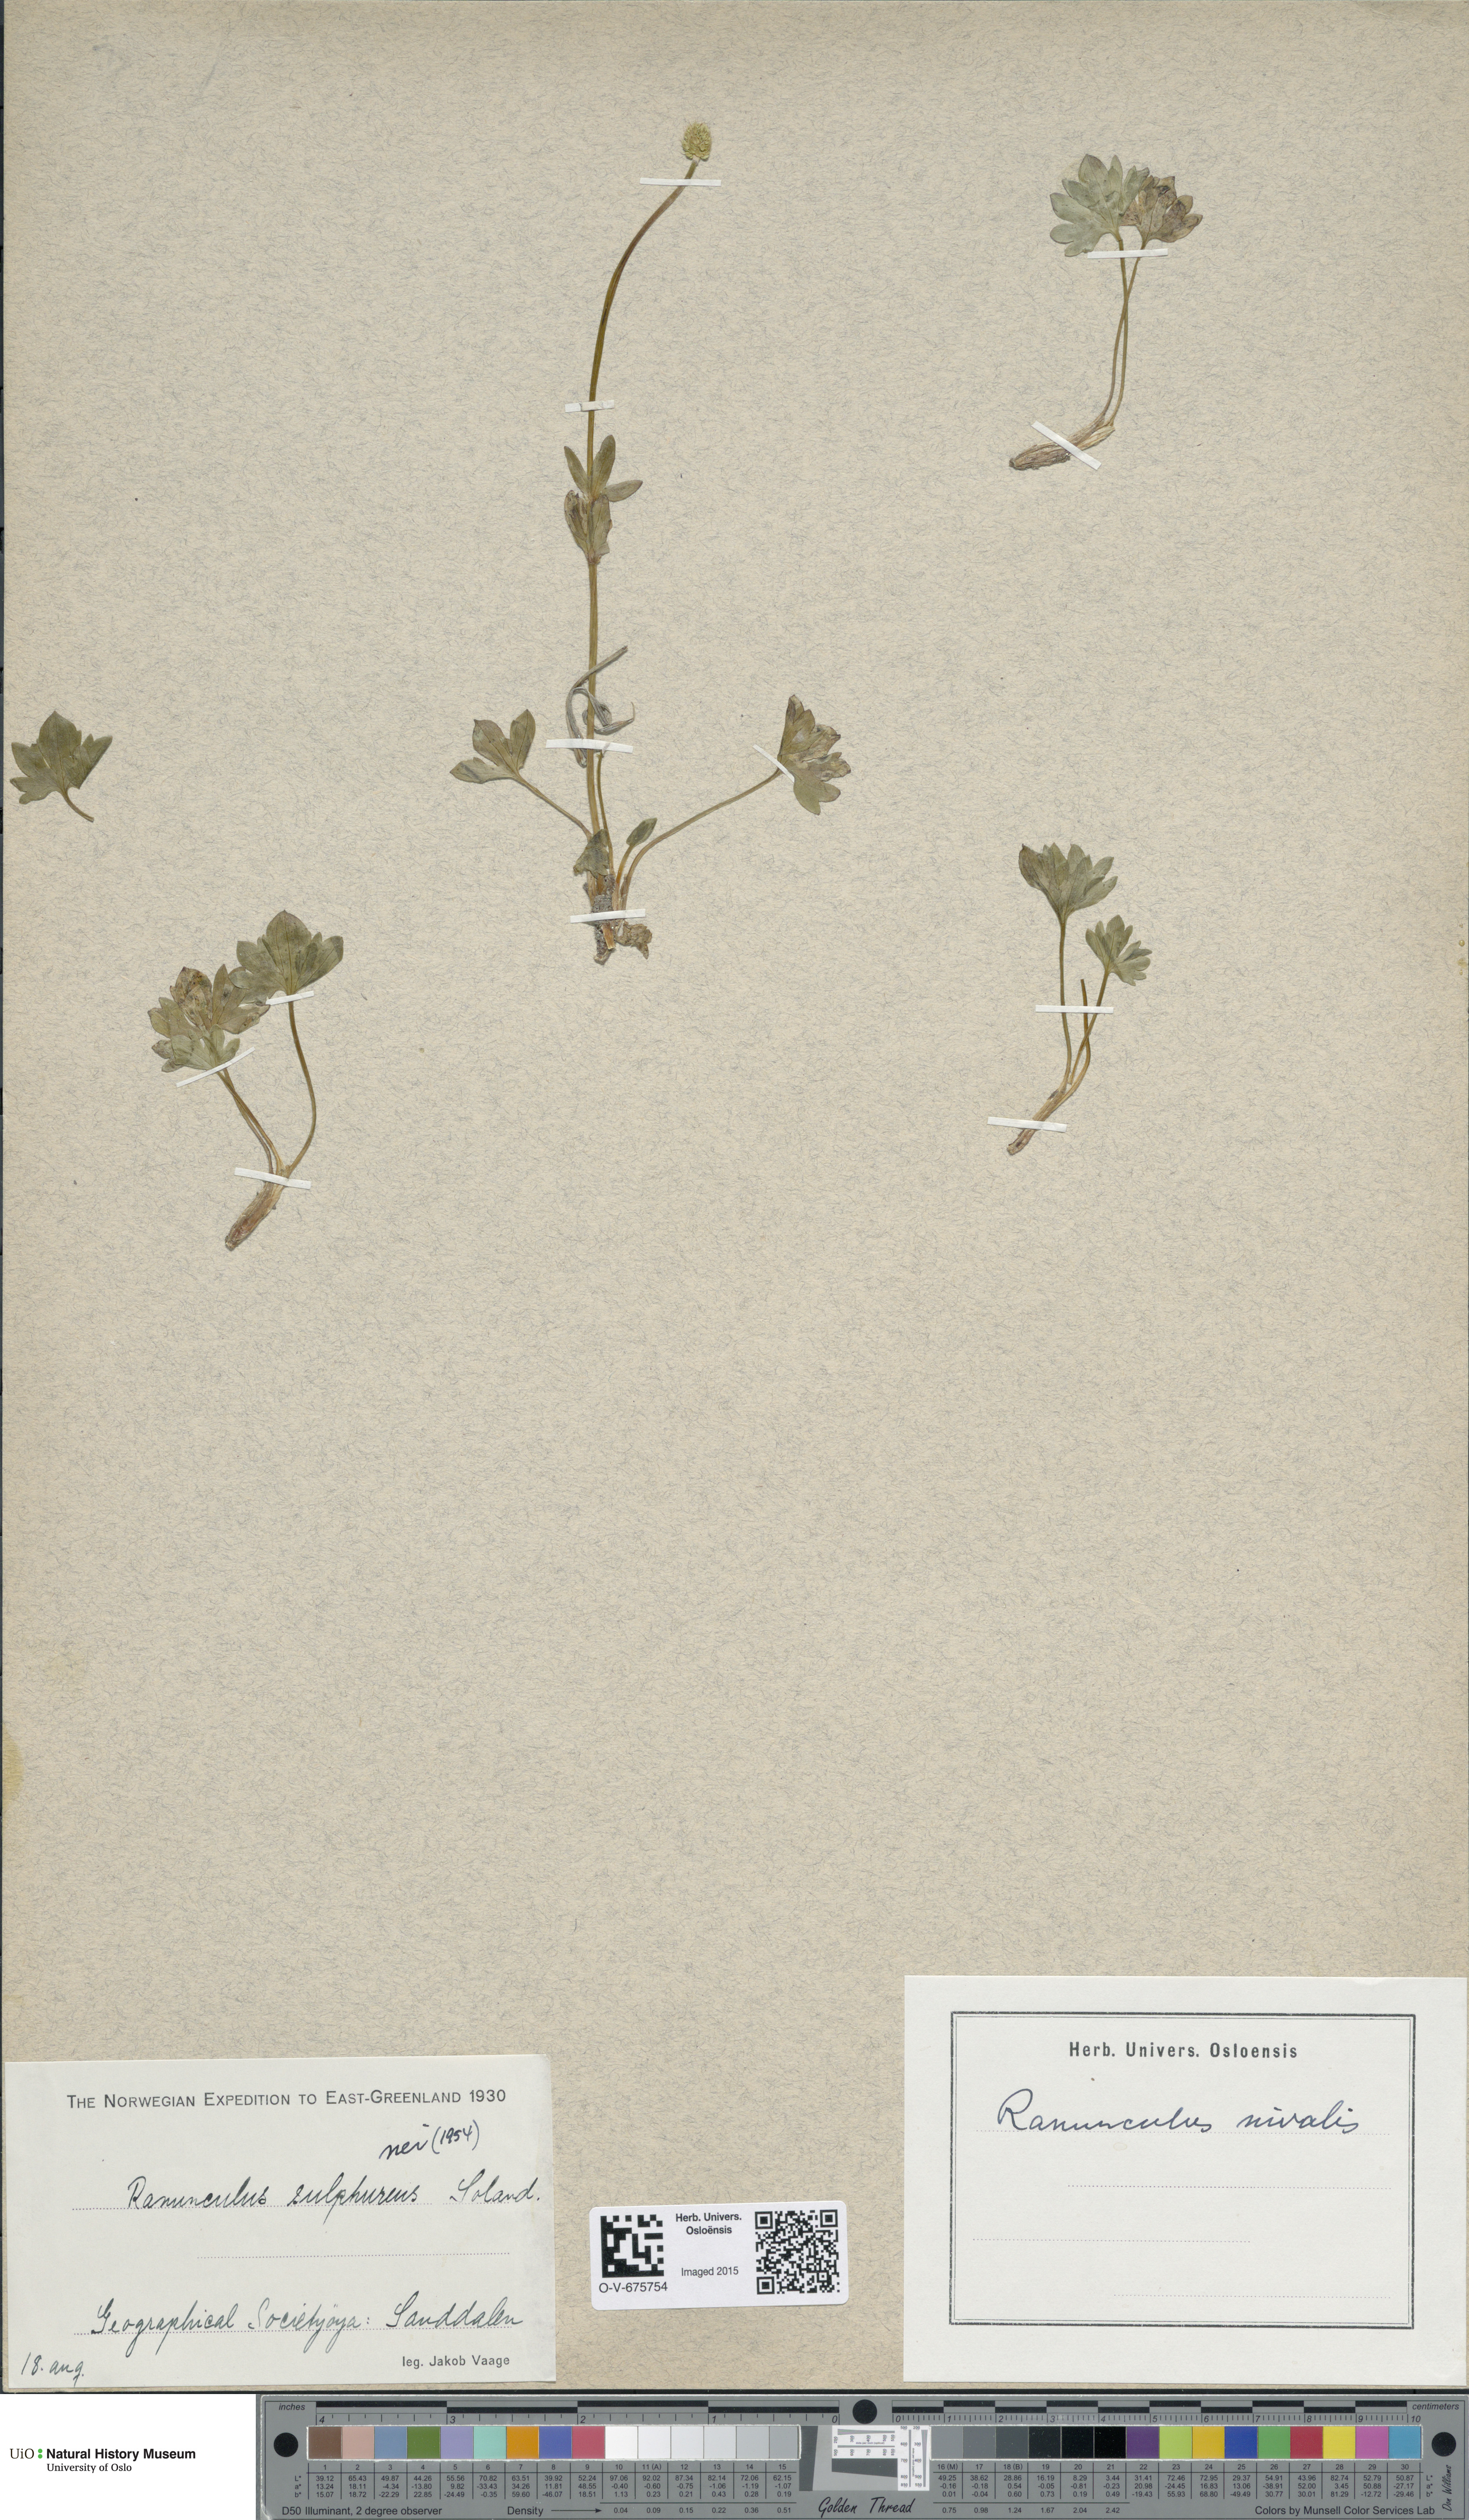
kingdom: Plantae
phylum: Tracheophyta
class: Magnoliopsida
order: Ranunculales
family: Ranunculaceae
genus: Ranunculus
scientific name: Ranunculus nivalis
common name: Snow buttercup
